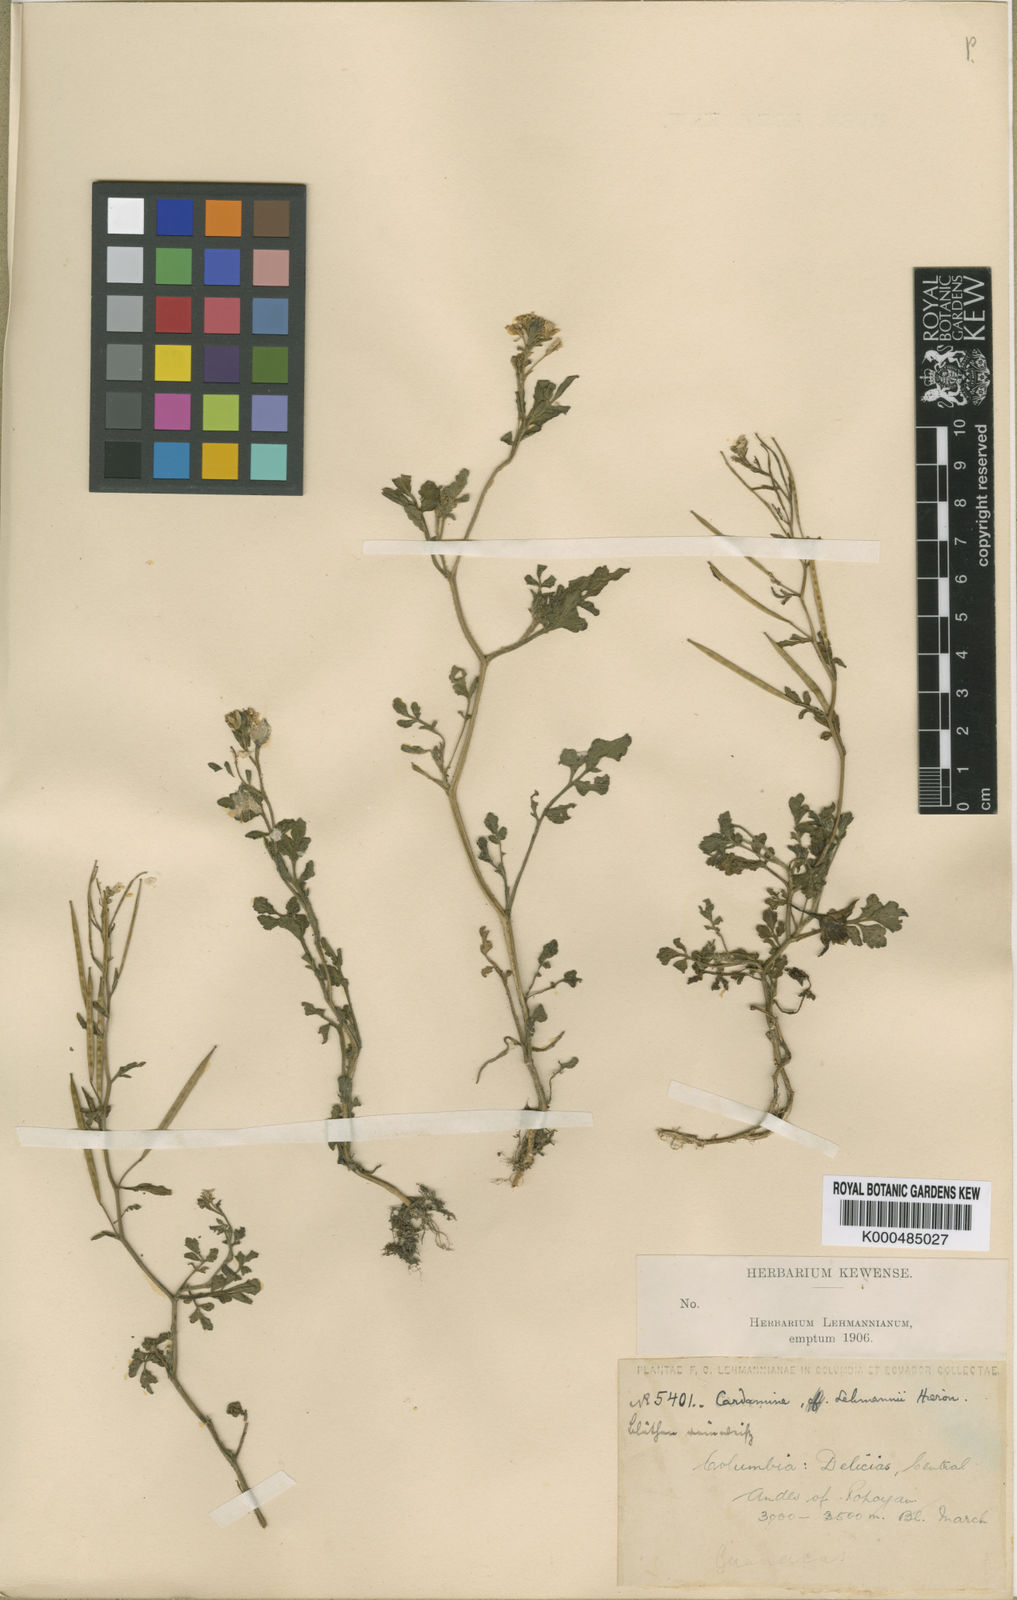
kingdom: Plantae
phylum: Tracheophyta
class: Magnoliopsida
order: Brassicales
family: Brassicaceae
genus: Cardamine
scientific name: Cardamine ovata
